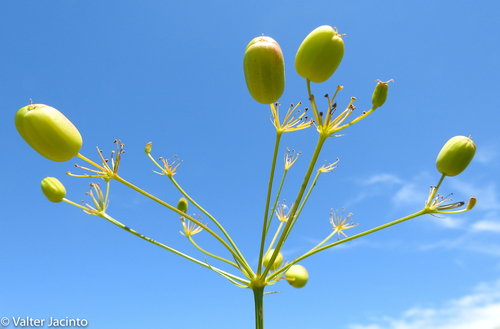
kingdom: Plantae
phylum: Tracheophyta
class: Magnoliopsida
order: Apiales
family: Apiaceae
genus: Prangos
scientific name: Prangos trifida
